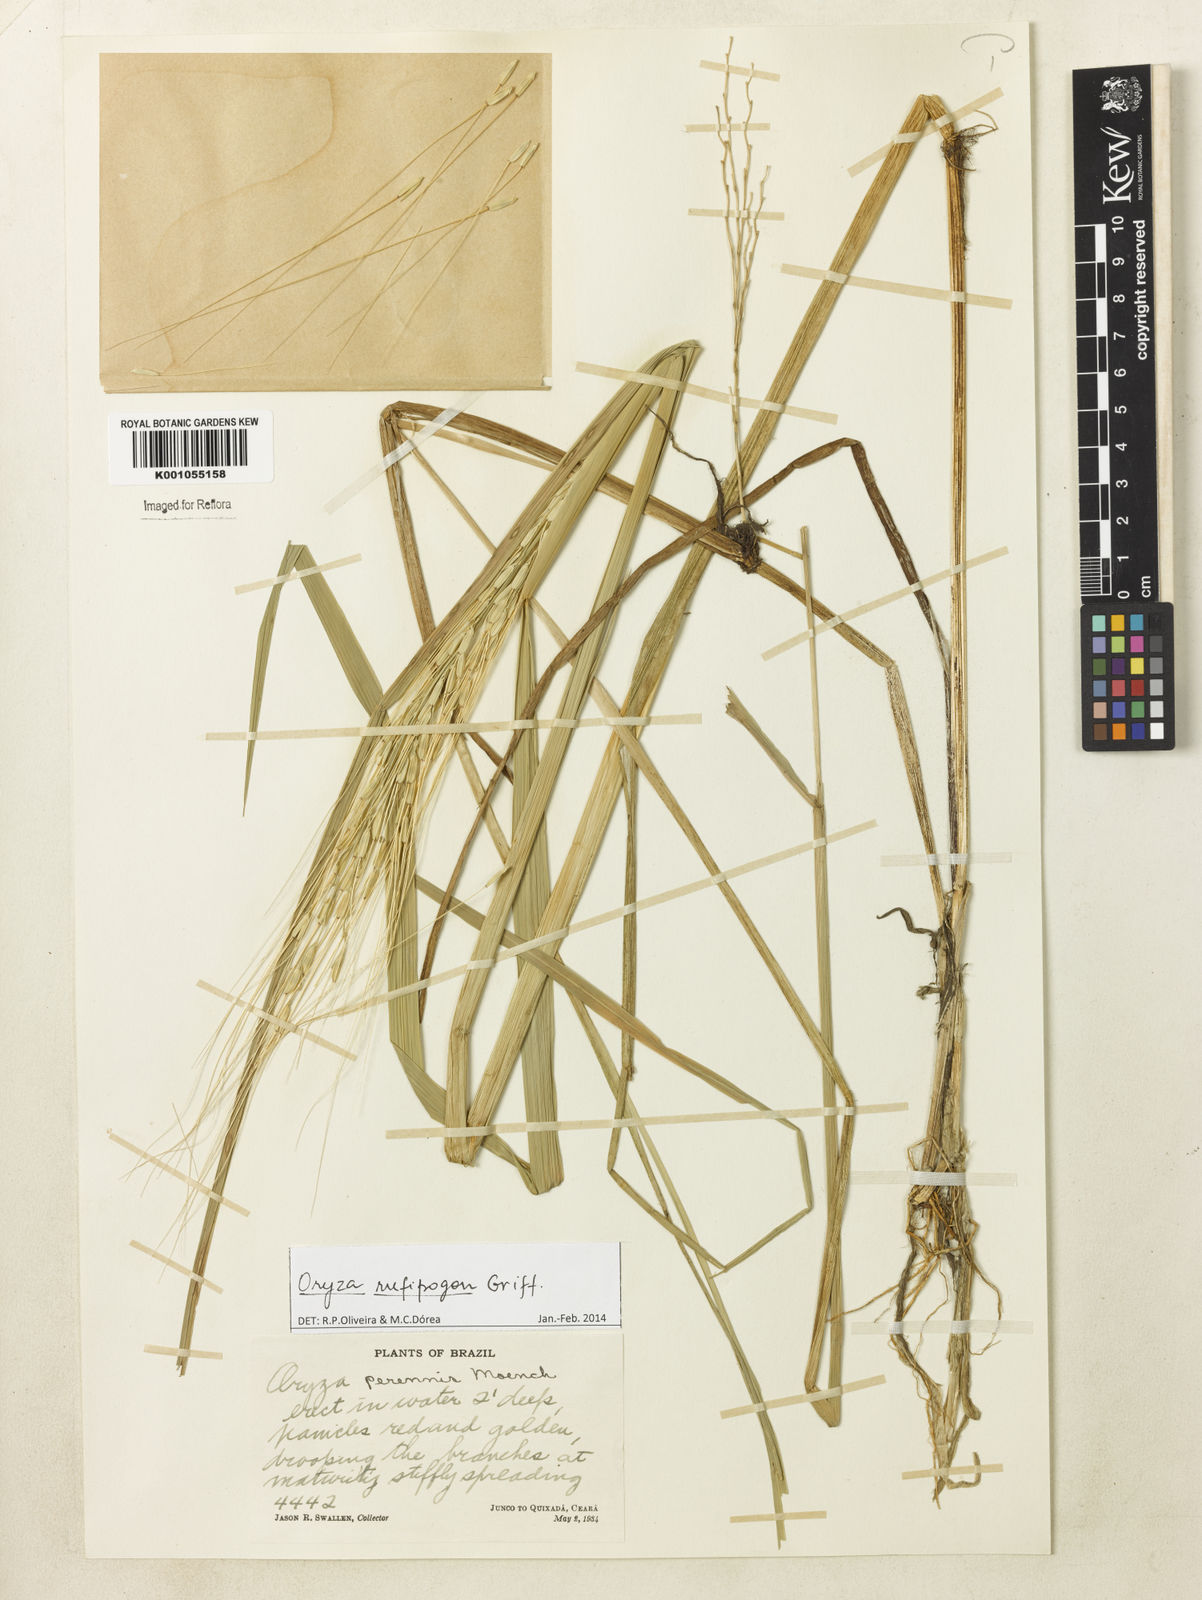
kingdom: Plantae
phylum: Tracheophyta
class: Liliopsida
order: Poales
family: Poaceae
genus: Oryza
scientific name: Oryza rufipogon
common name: Red rice
